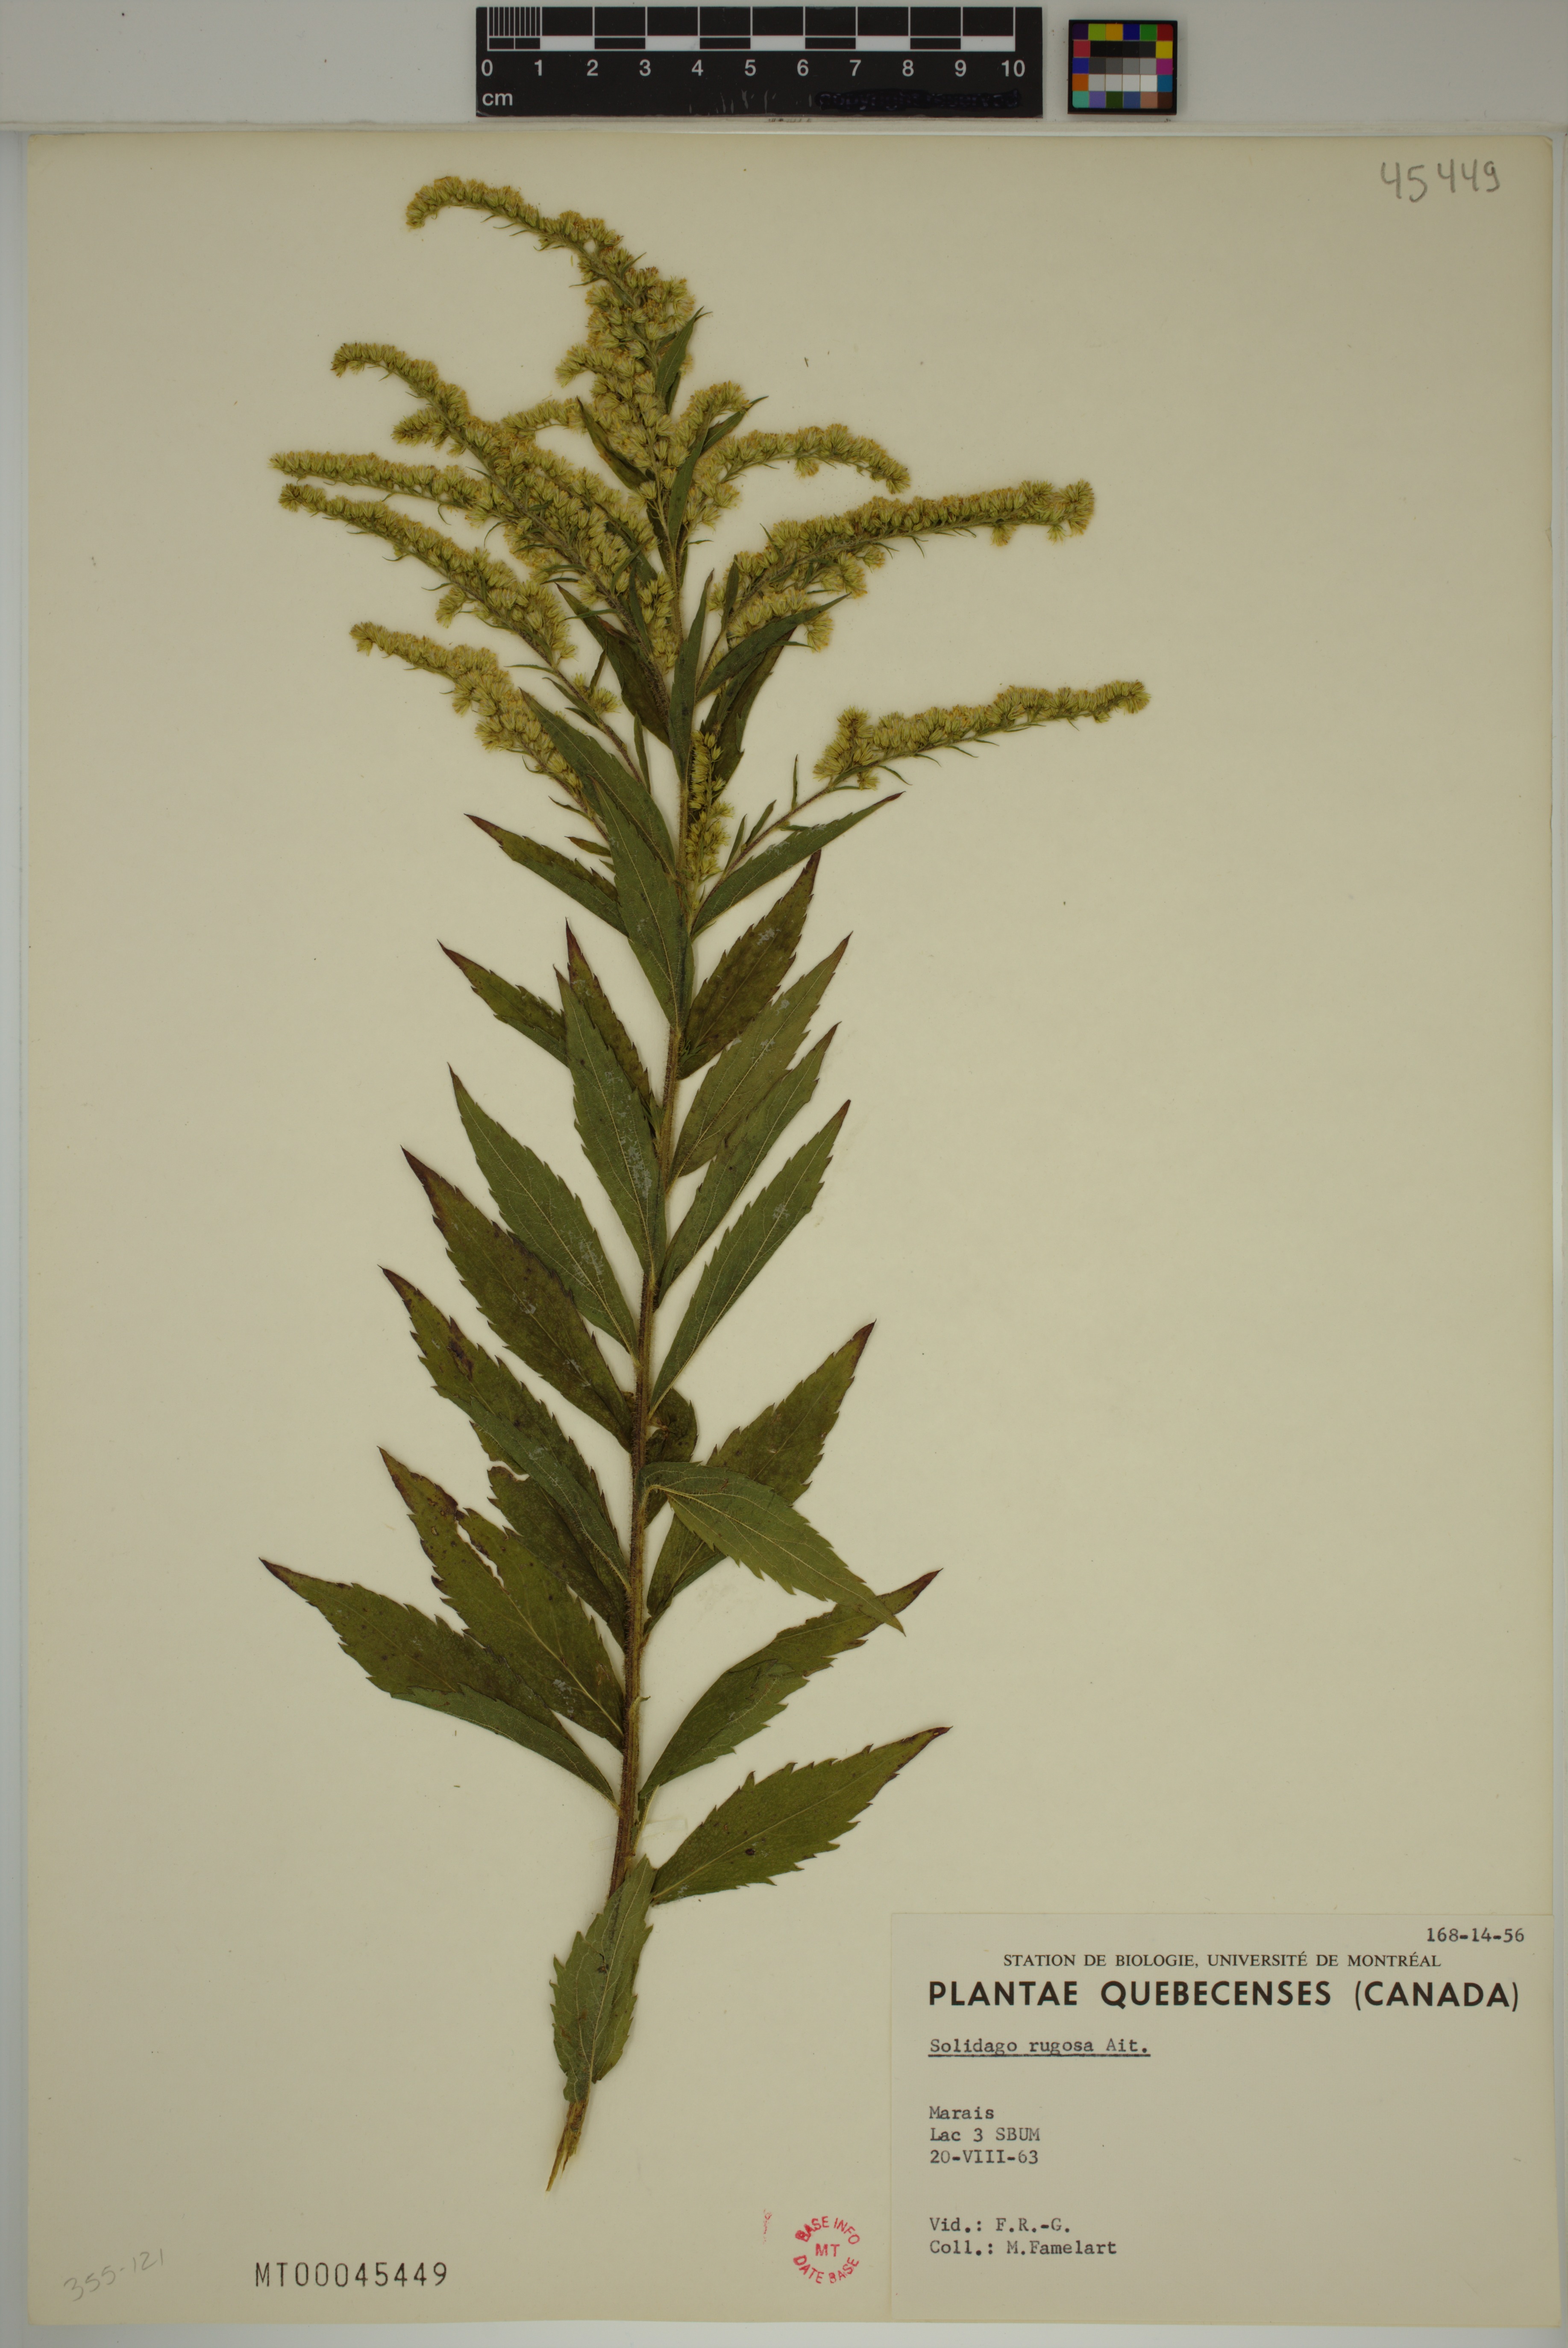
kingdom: Plantae
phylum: Tracheophyta
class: Magnoliopsida
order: Asterales
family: Asteraceae
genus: Solidago
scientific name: Solidago rugosa
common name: Rough-stemmed goldenrod
